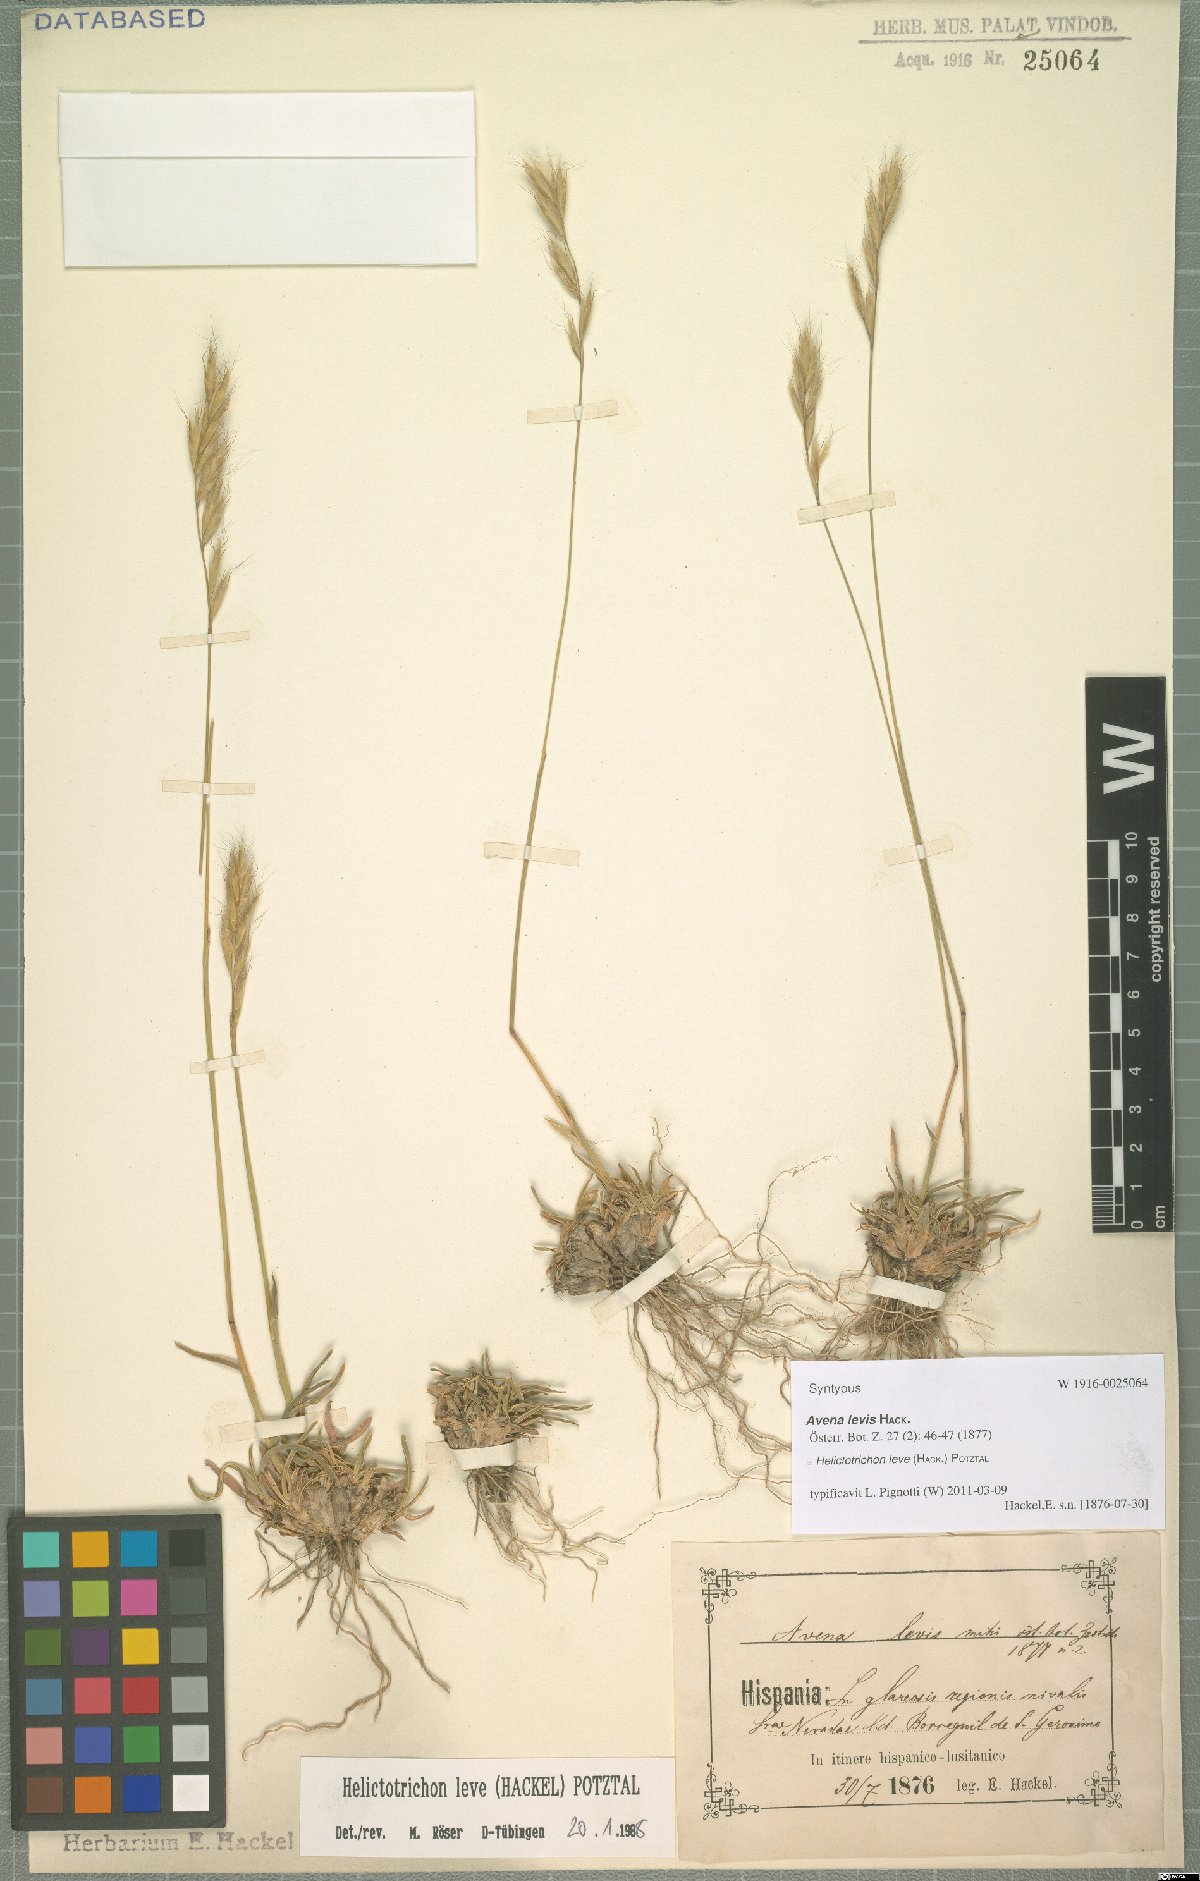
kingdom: Plantae
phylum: Tracheophyta
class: Liliopsida
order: Poales
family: Poaceae
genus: Helictochloa
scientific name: Helictochloa levis
